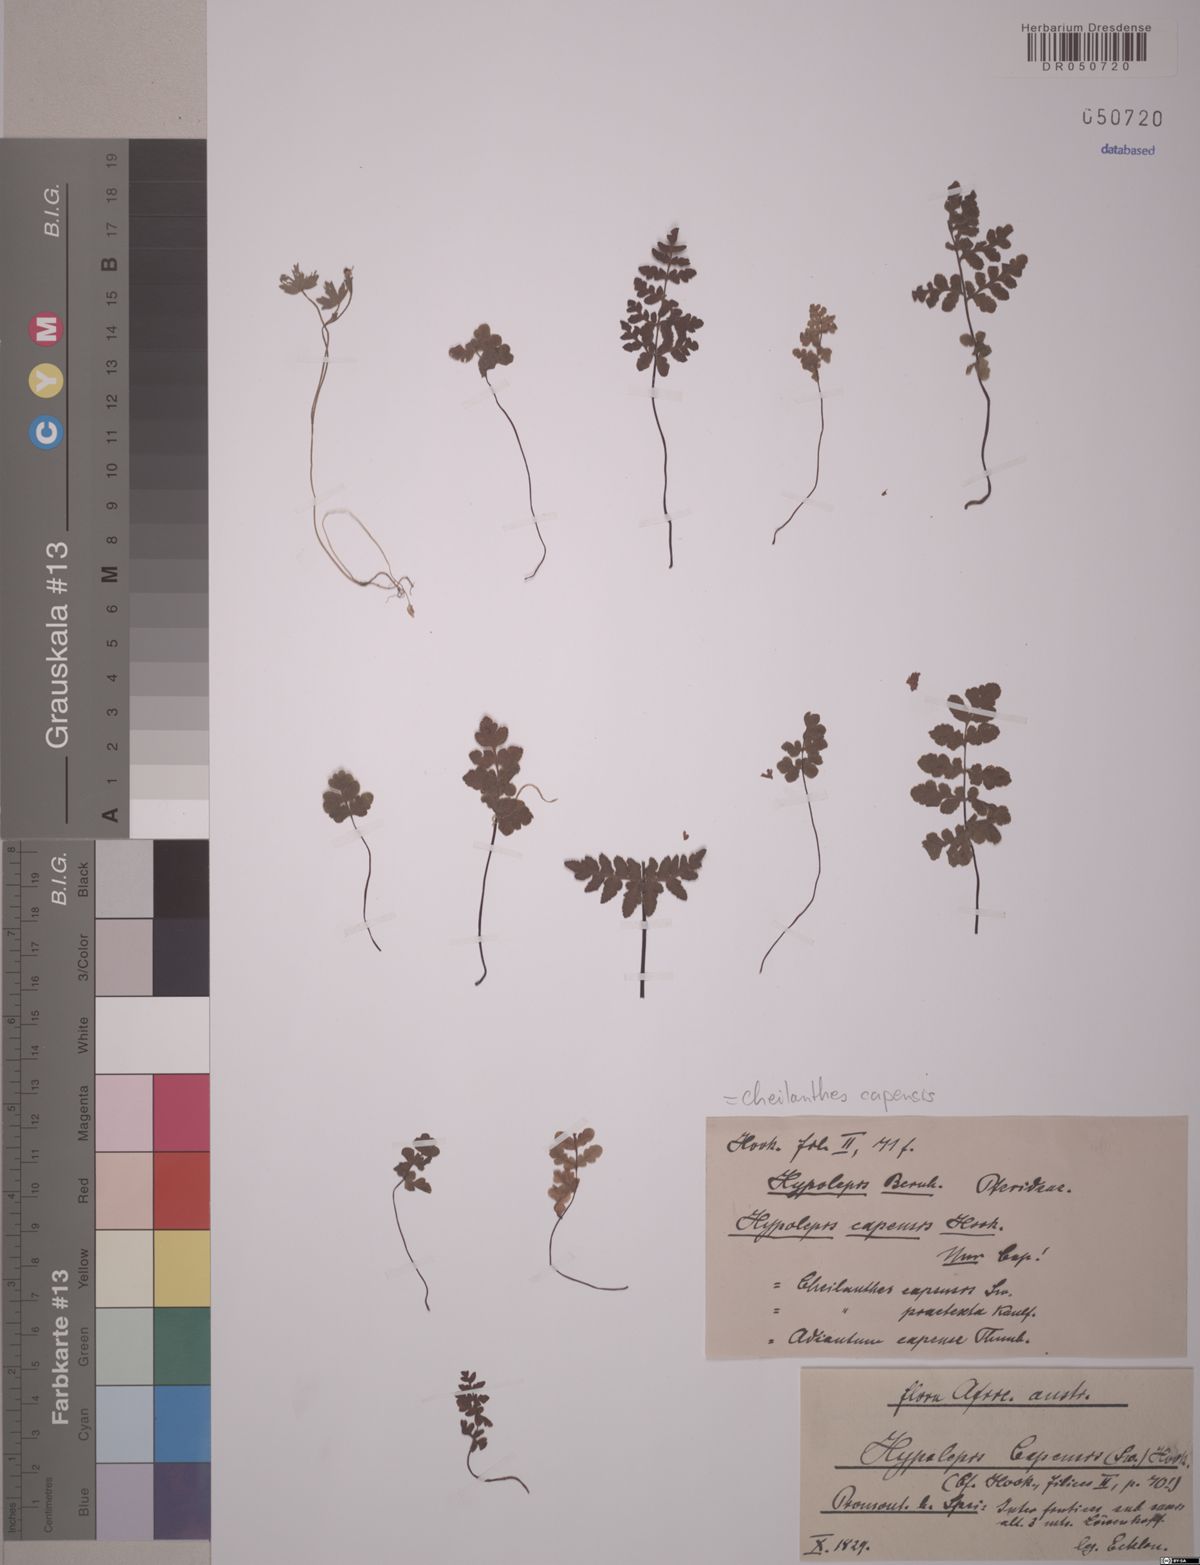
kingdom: Plantae
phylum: Tracheophyta
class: Polypodiopsida
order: Polypodiales
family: Pteridaceae
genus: Cheilanthes
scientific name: Cheilanthes capensis
